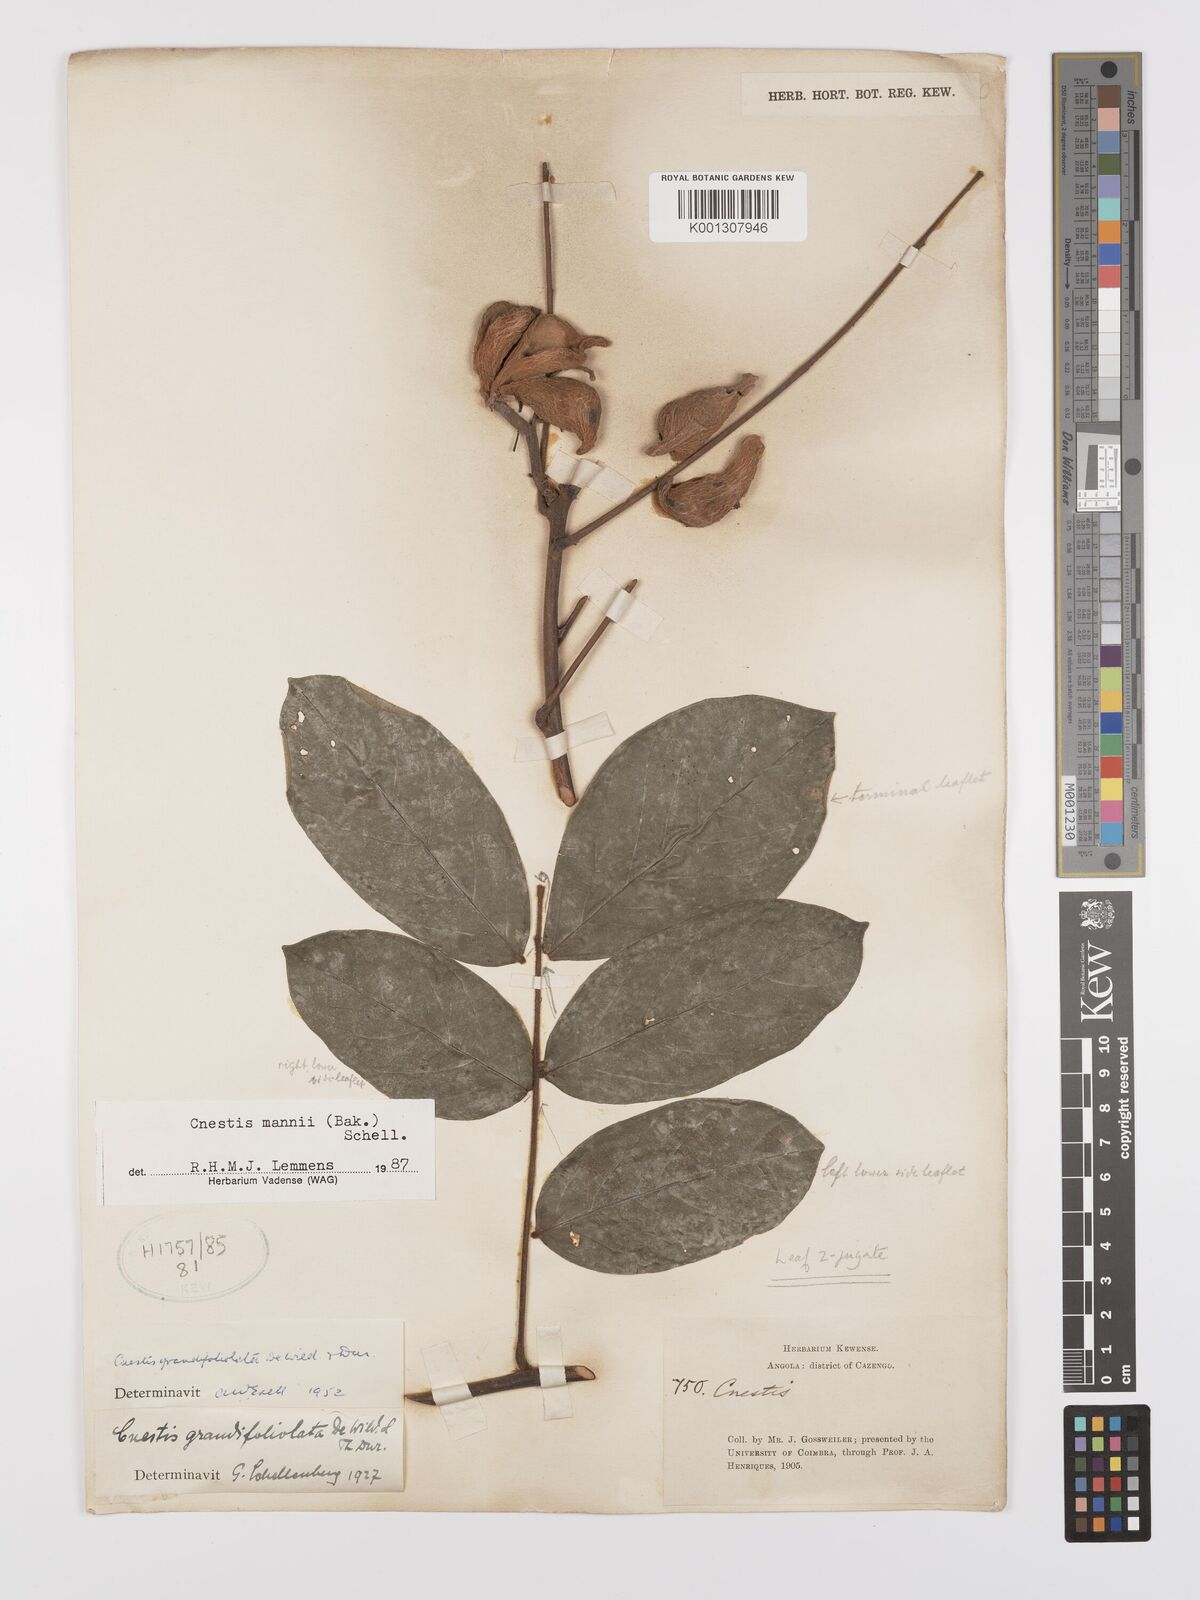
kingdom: Plantae
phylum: Tracheophyta
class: Magnoliopsida
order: Oxalidales
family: Connaraceae
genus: Cnestis
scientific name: Cnestis mannii
